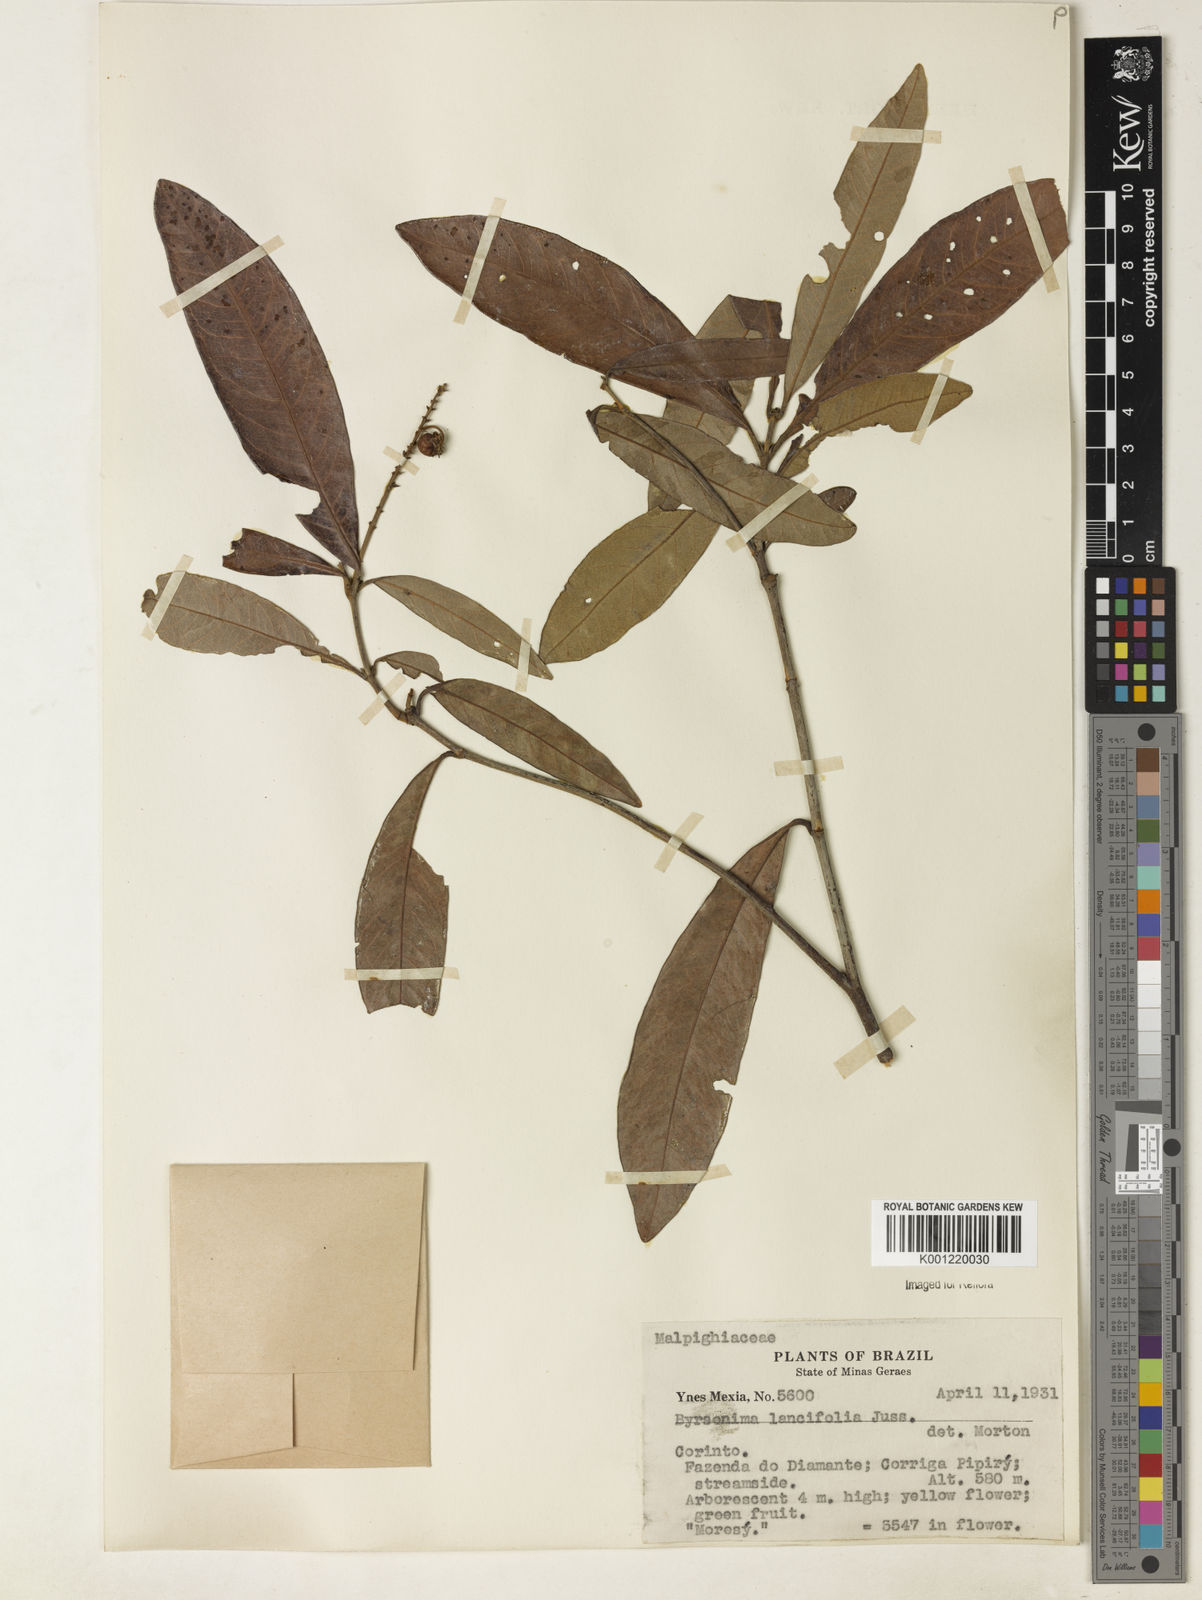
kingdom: Plantae
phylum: Tracheophyta
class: Magnoliopsida
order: Malpighiales
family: Malpighiaceae
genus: Byrsonima
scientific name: Byrsonima lancifolia
